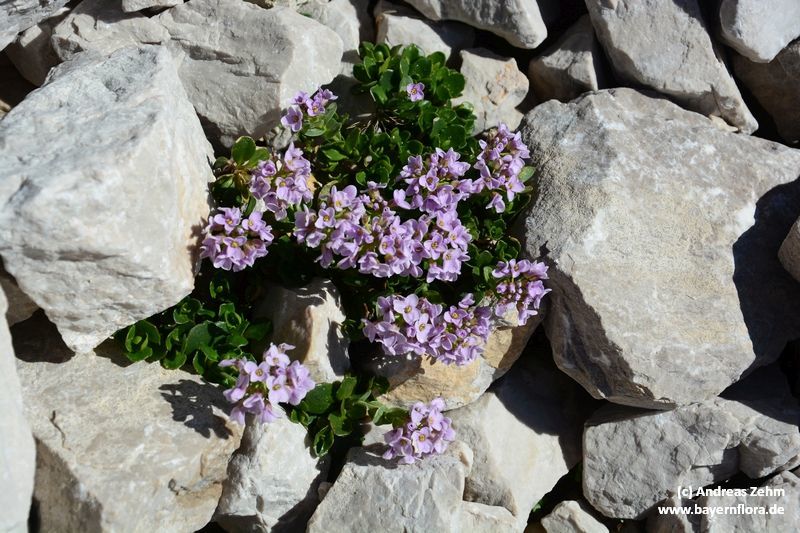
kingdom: Plantae
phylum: Tracheophyta
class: Magnoliopsida
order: Brassicales
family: Brassicaceae
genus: Noccaea
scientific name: Noccaea rotundifolia
